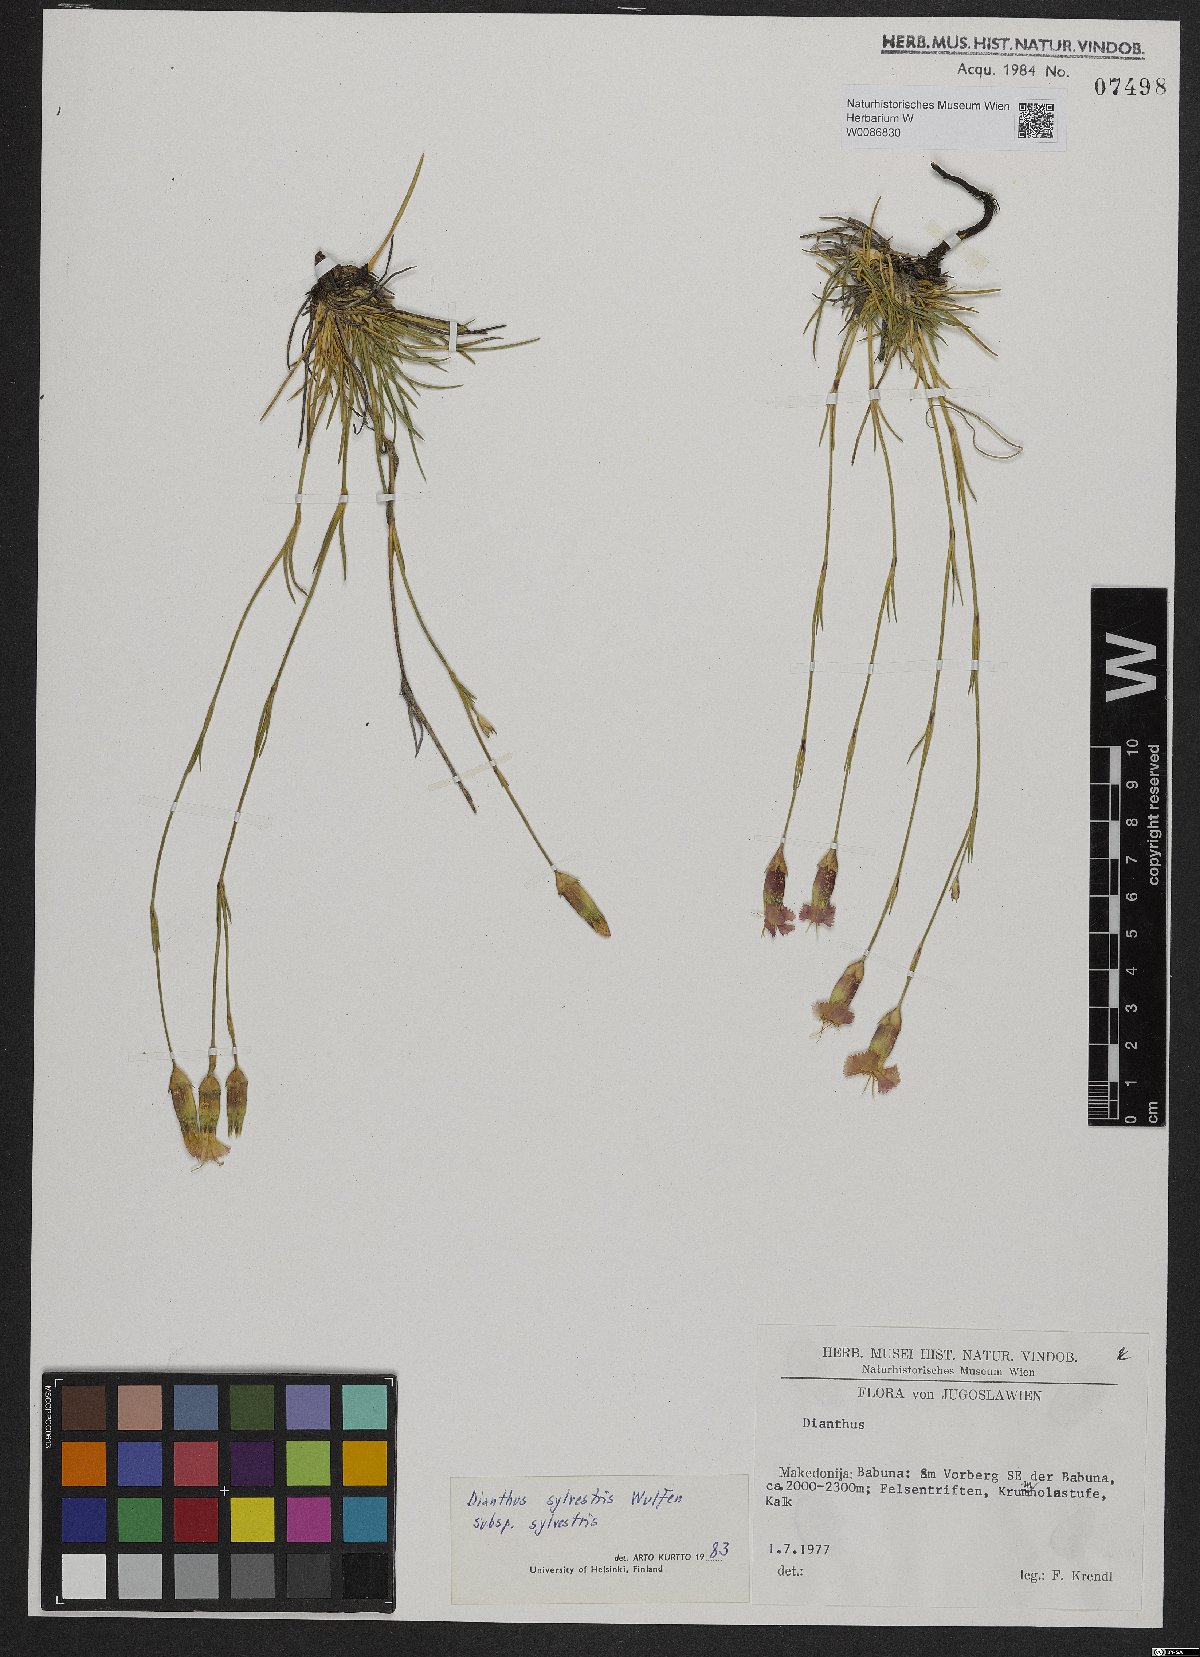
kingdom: Plantae
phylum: Tracheophyta
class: Magnoliopsida
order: Caryophyllales
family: Caryophyllaceae
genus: Dianthus
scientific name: Dianthus sylvestris
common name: Wood pink
